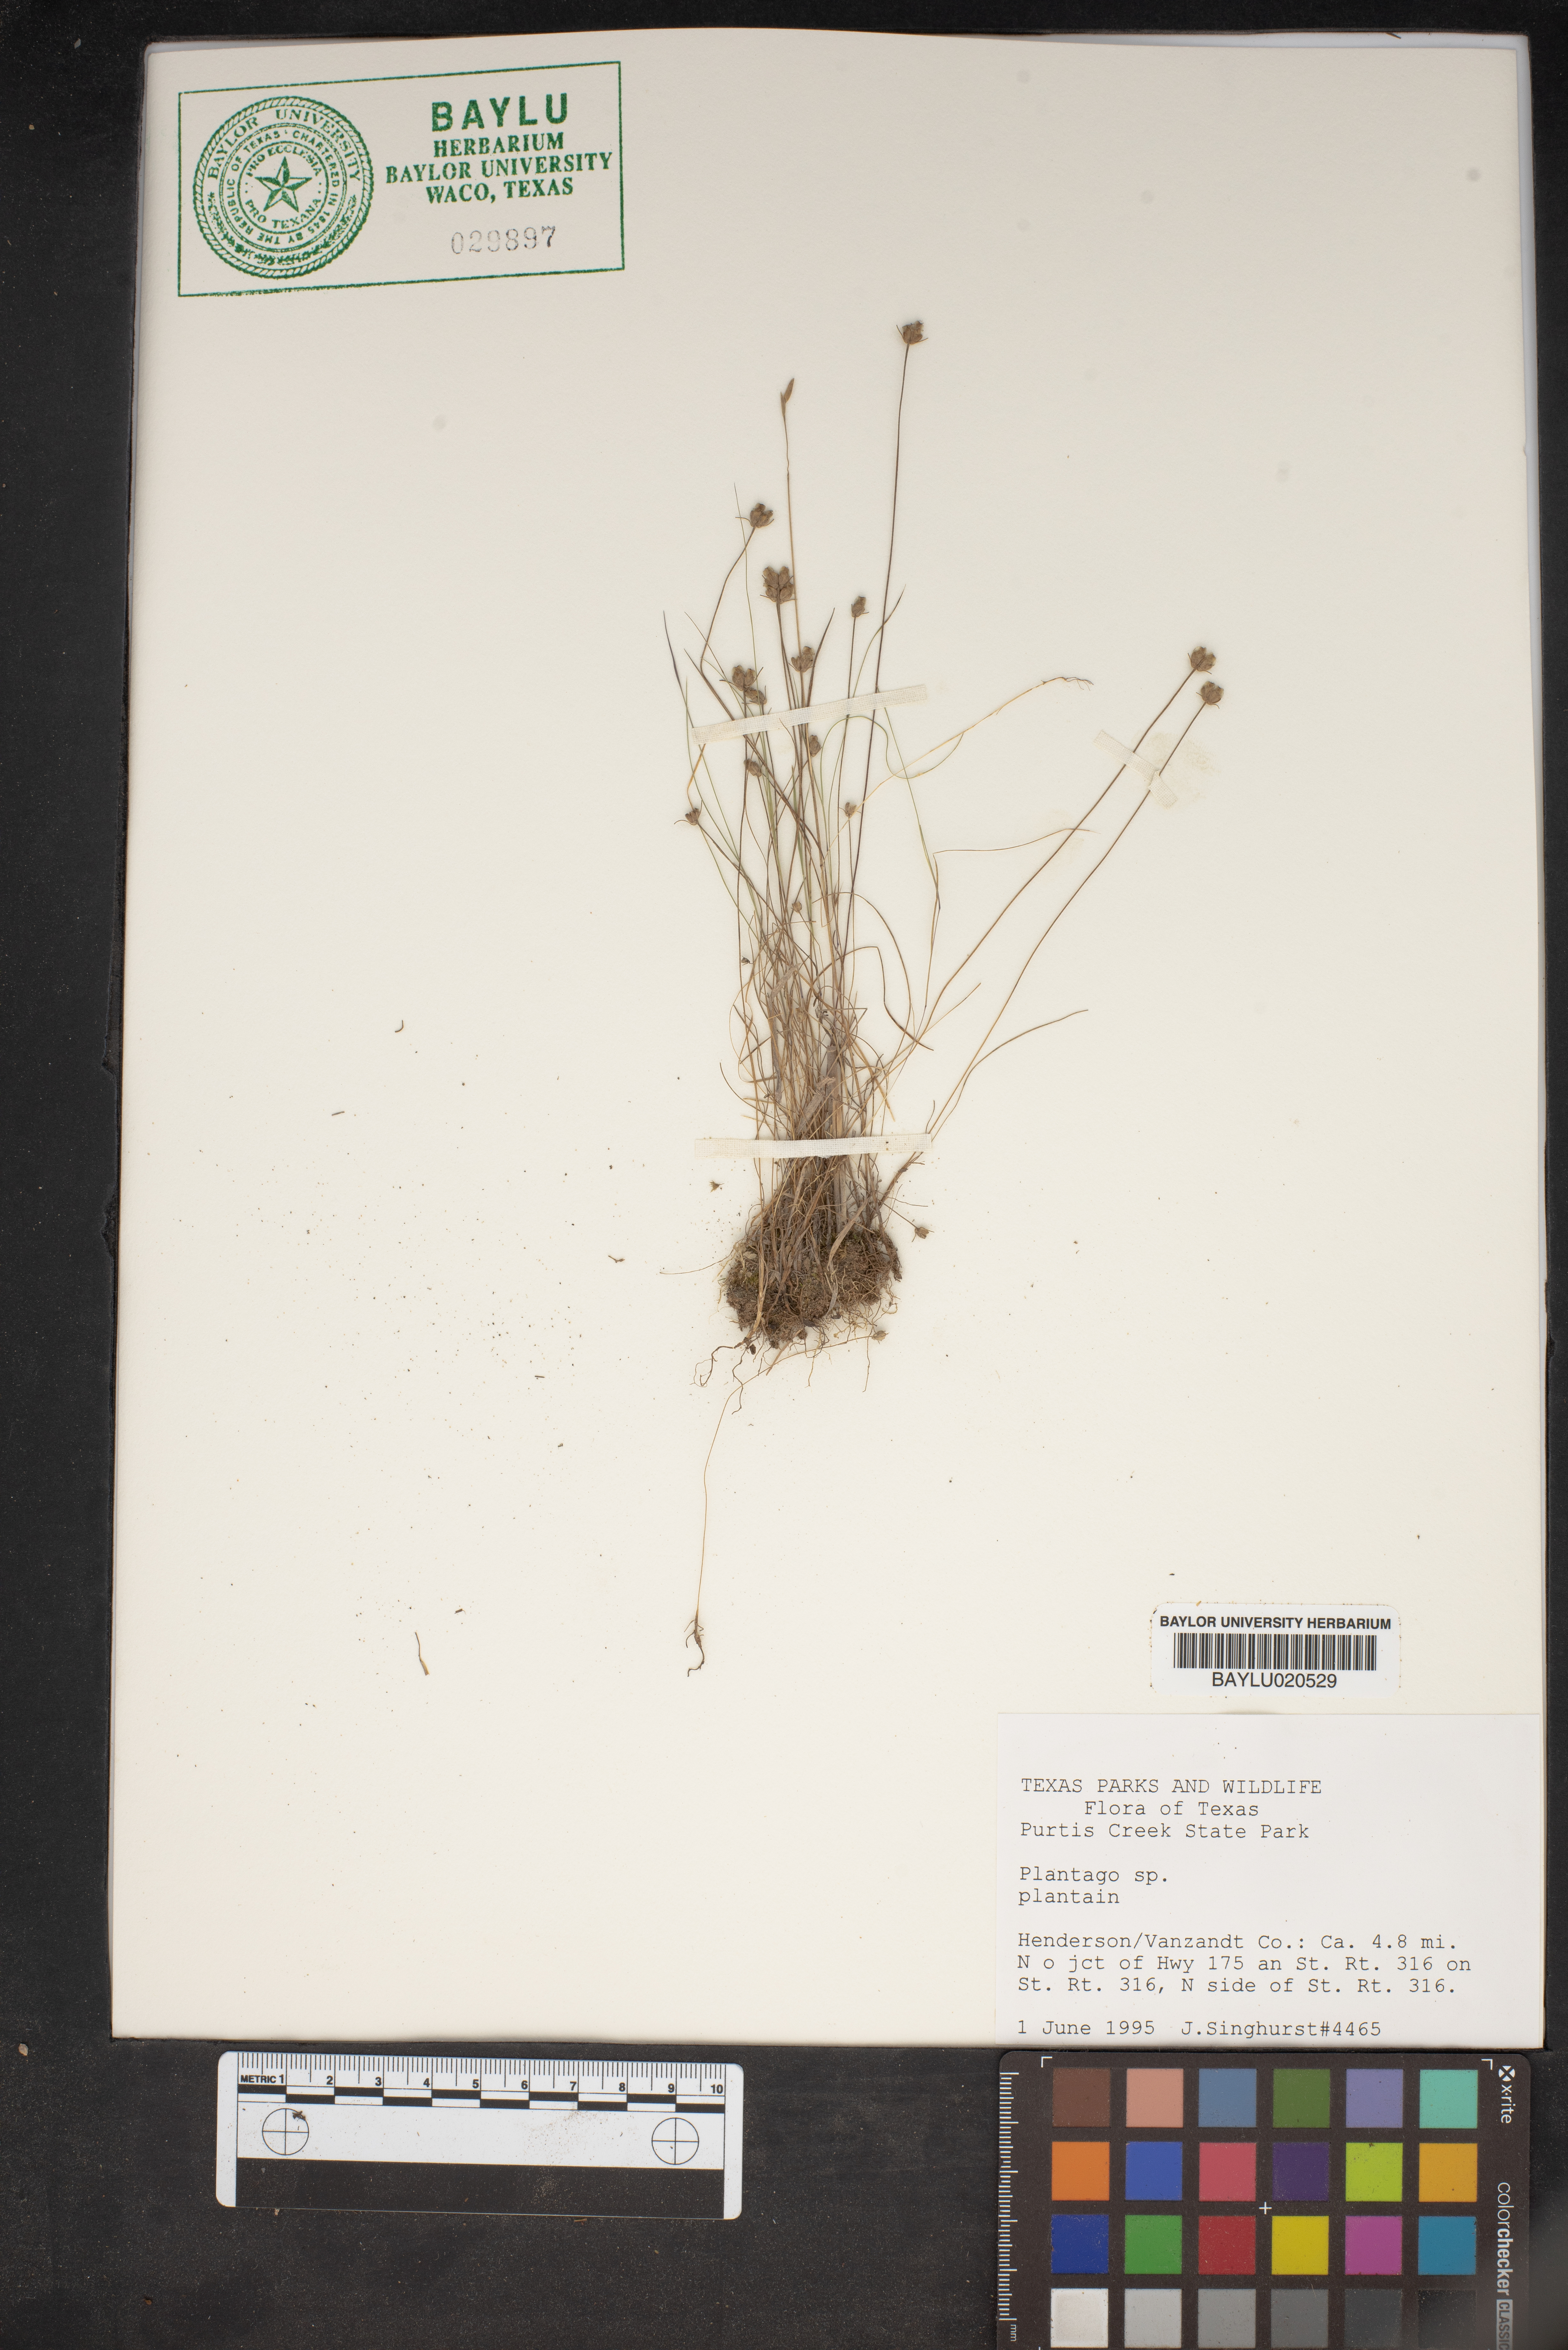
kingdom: Plantae
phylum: Tracheophyta
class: Magnoliopsida
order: Lamiales
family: Plantaginaceae
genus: Plantago
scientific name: Plantago
